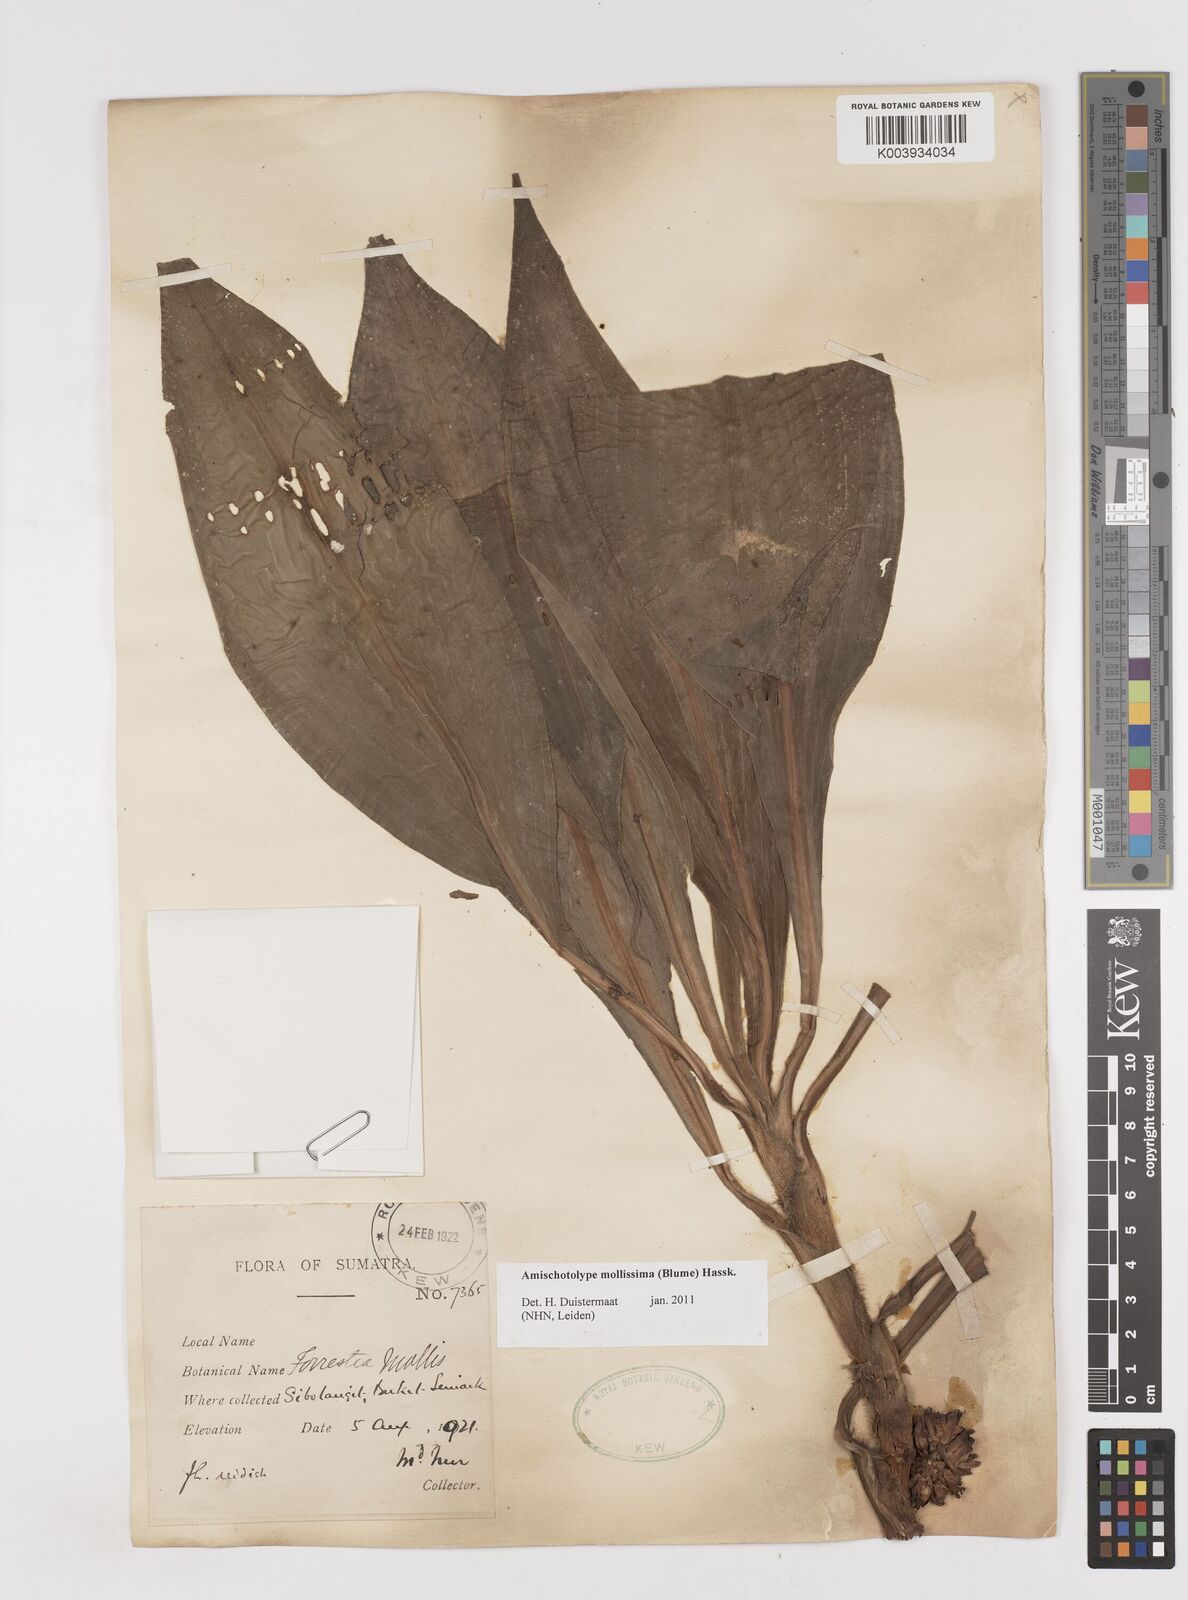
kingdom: Plantae
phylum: Tracheophyta
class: Liliopsida
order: Commelinales
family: Commelinaceae
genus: Amischotolype
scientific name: Amischotolype mollissima
